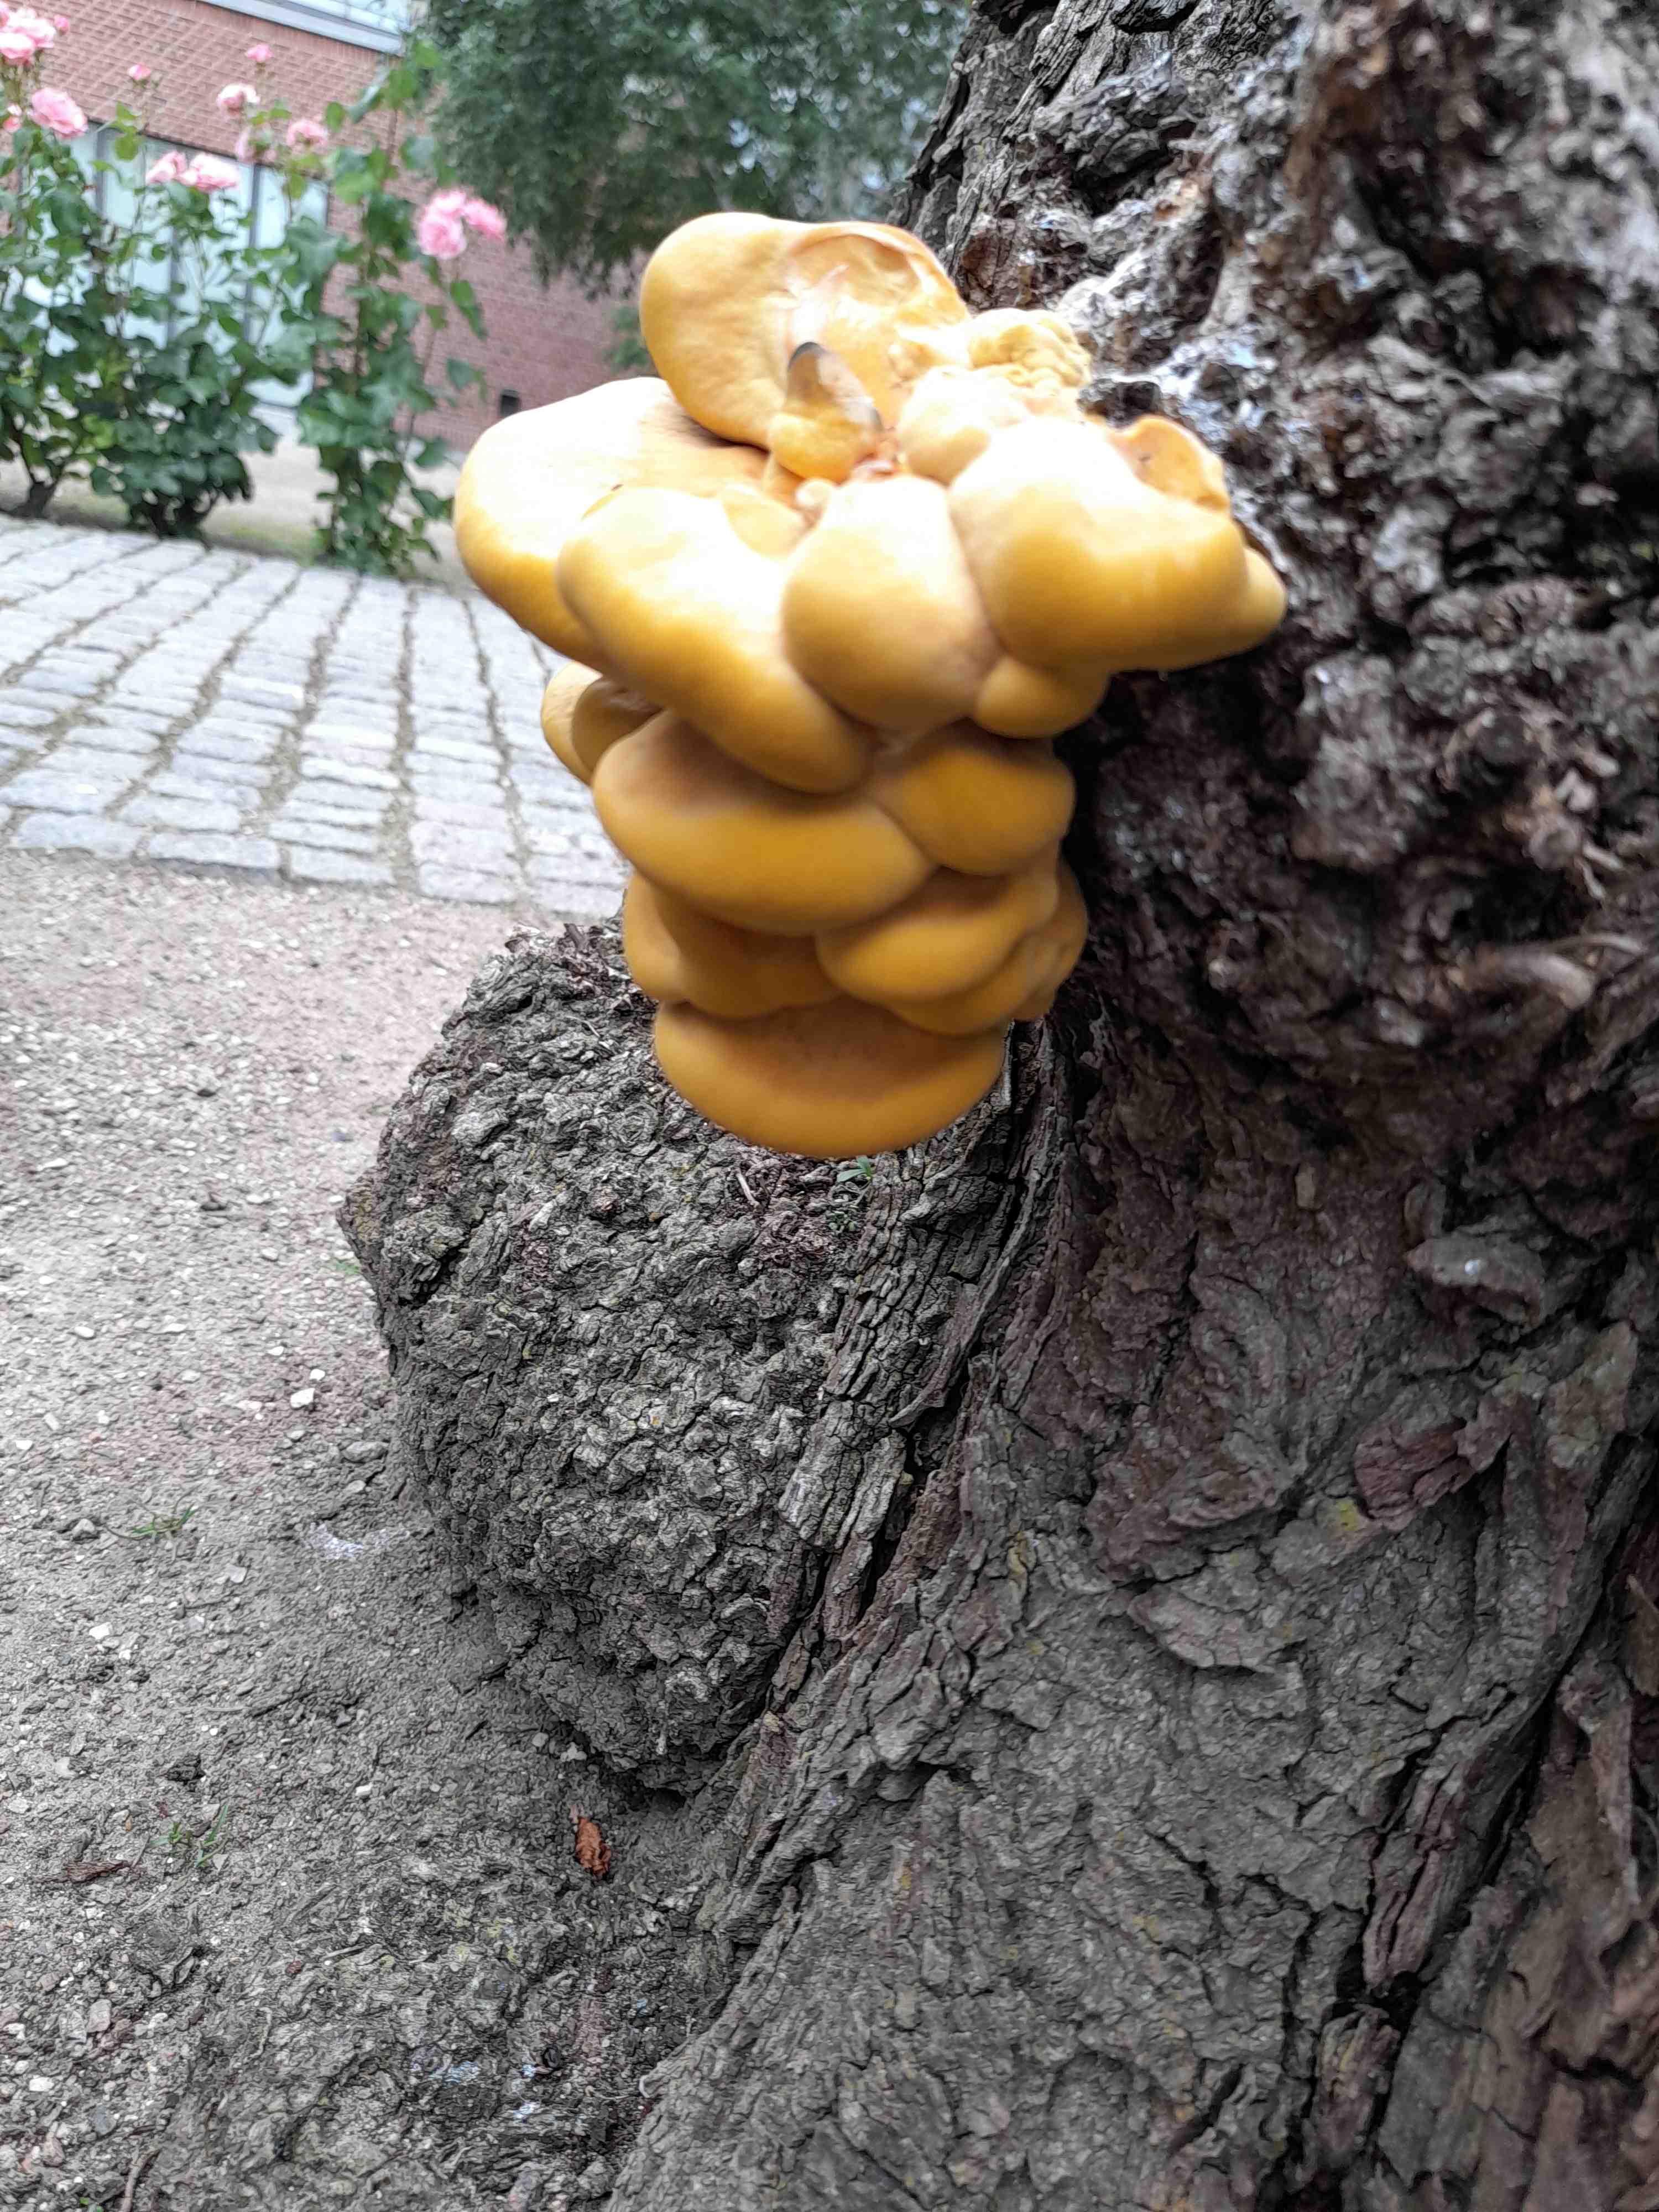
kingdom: Fungi
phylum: Basidiomycota
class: Agaricomycetes
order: Polyporales
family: Laetiporaceae
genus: Laetiporus
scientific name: Laetiporus sulphureus
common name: svovlporesvamp
